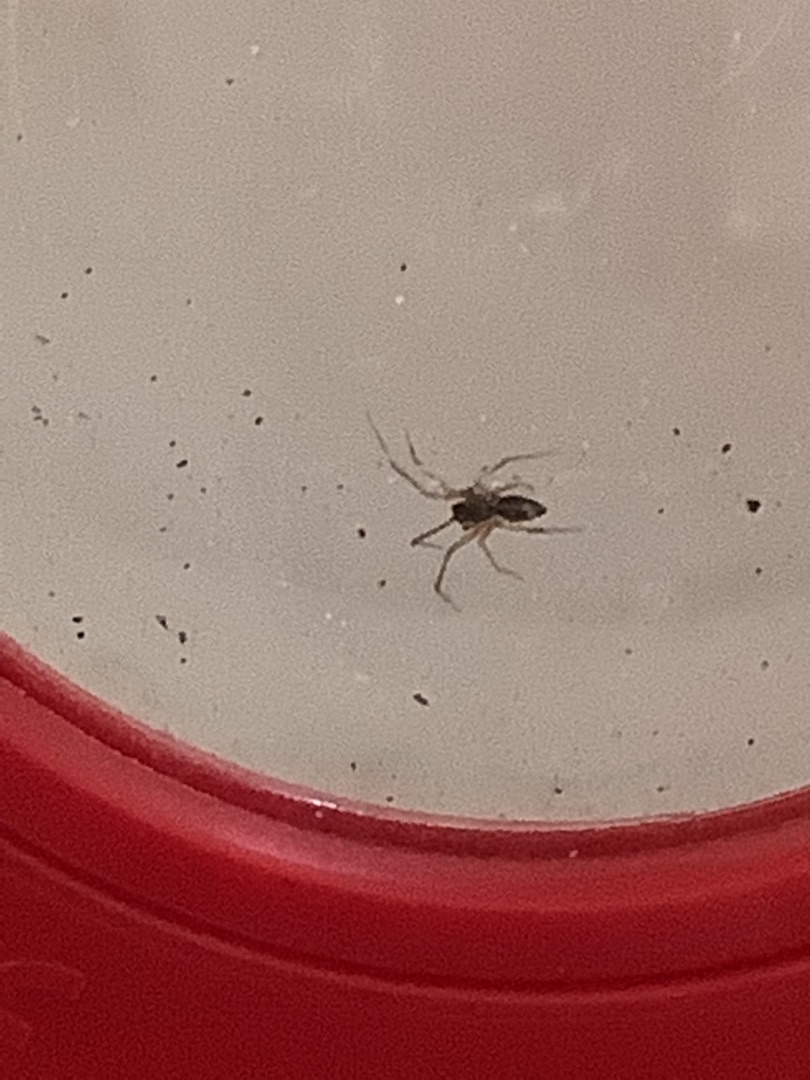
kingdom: Animalia
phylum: Arthropoda
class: Arachnida
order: Araneae
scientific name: Araneae
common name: Edderkopper
